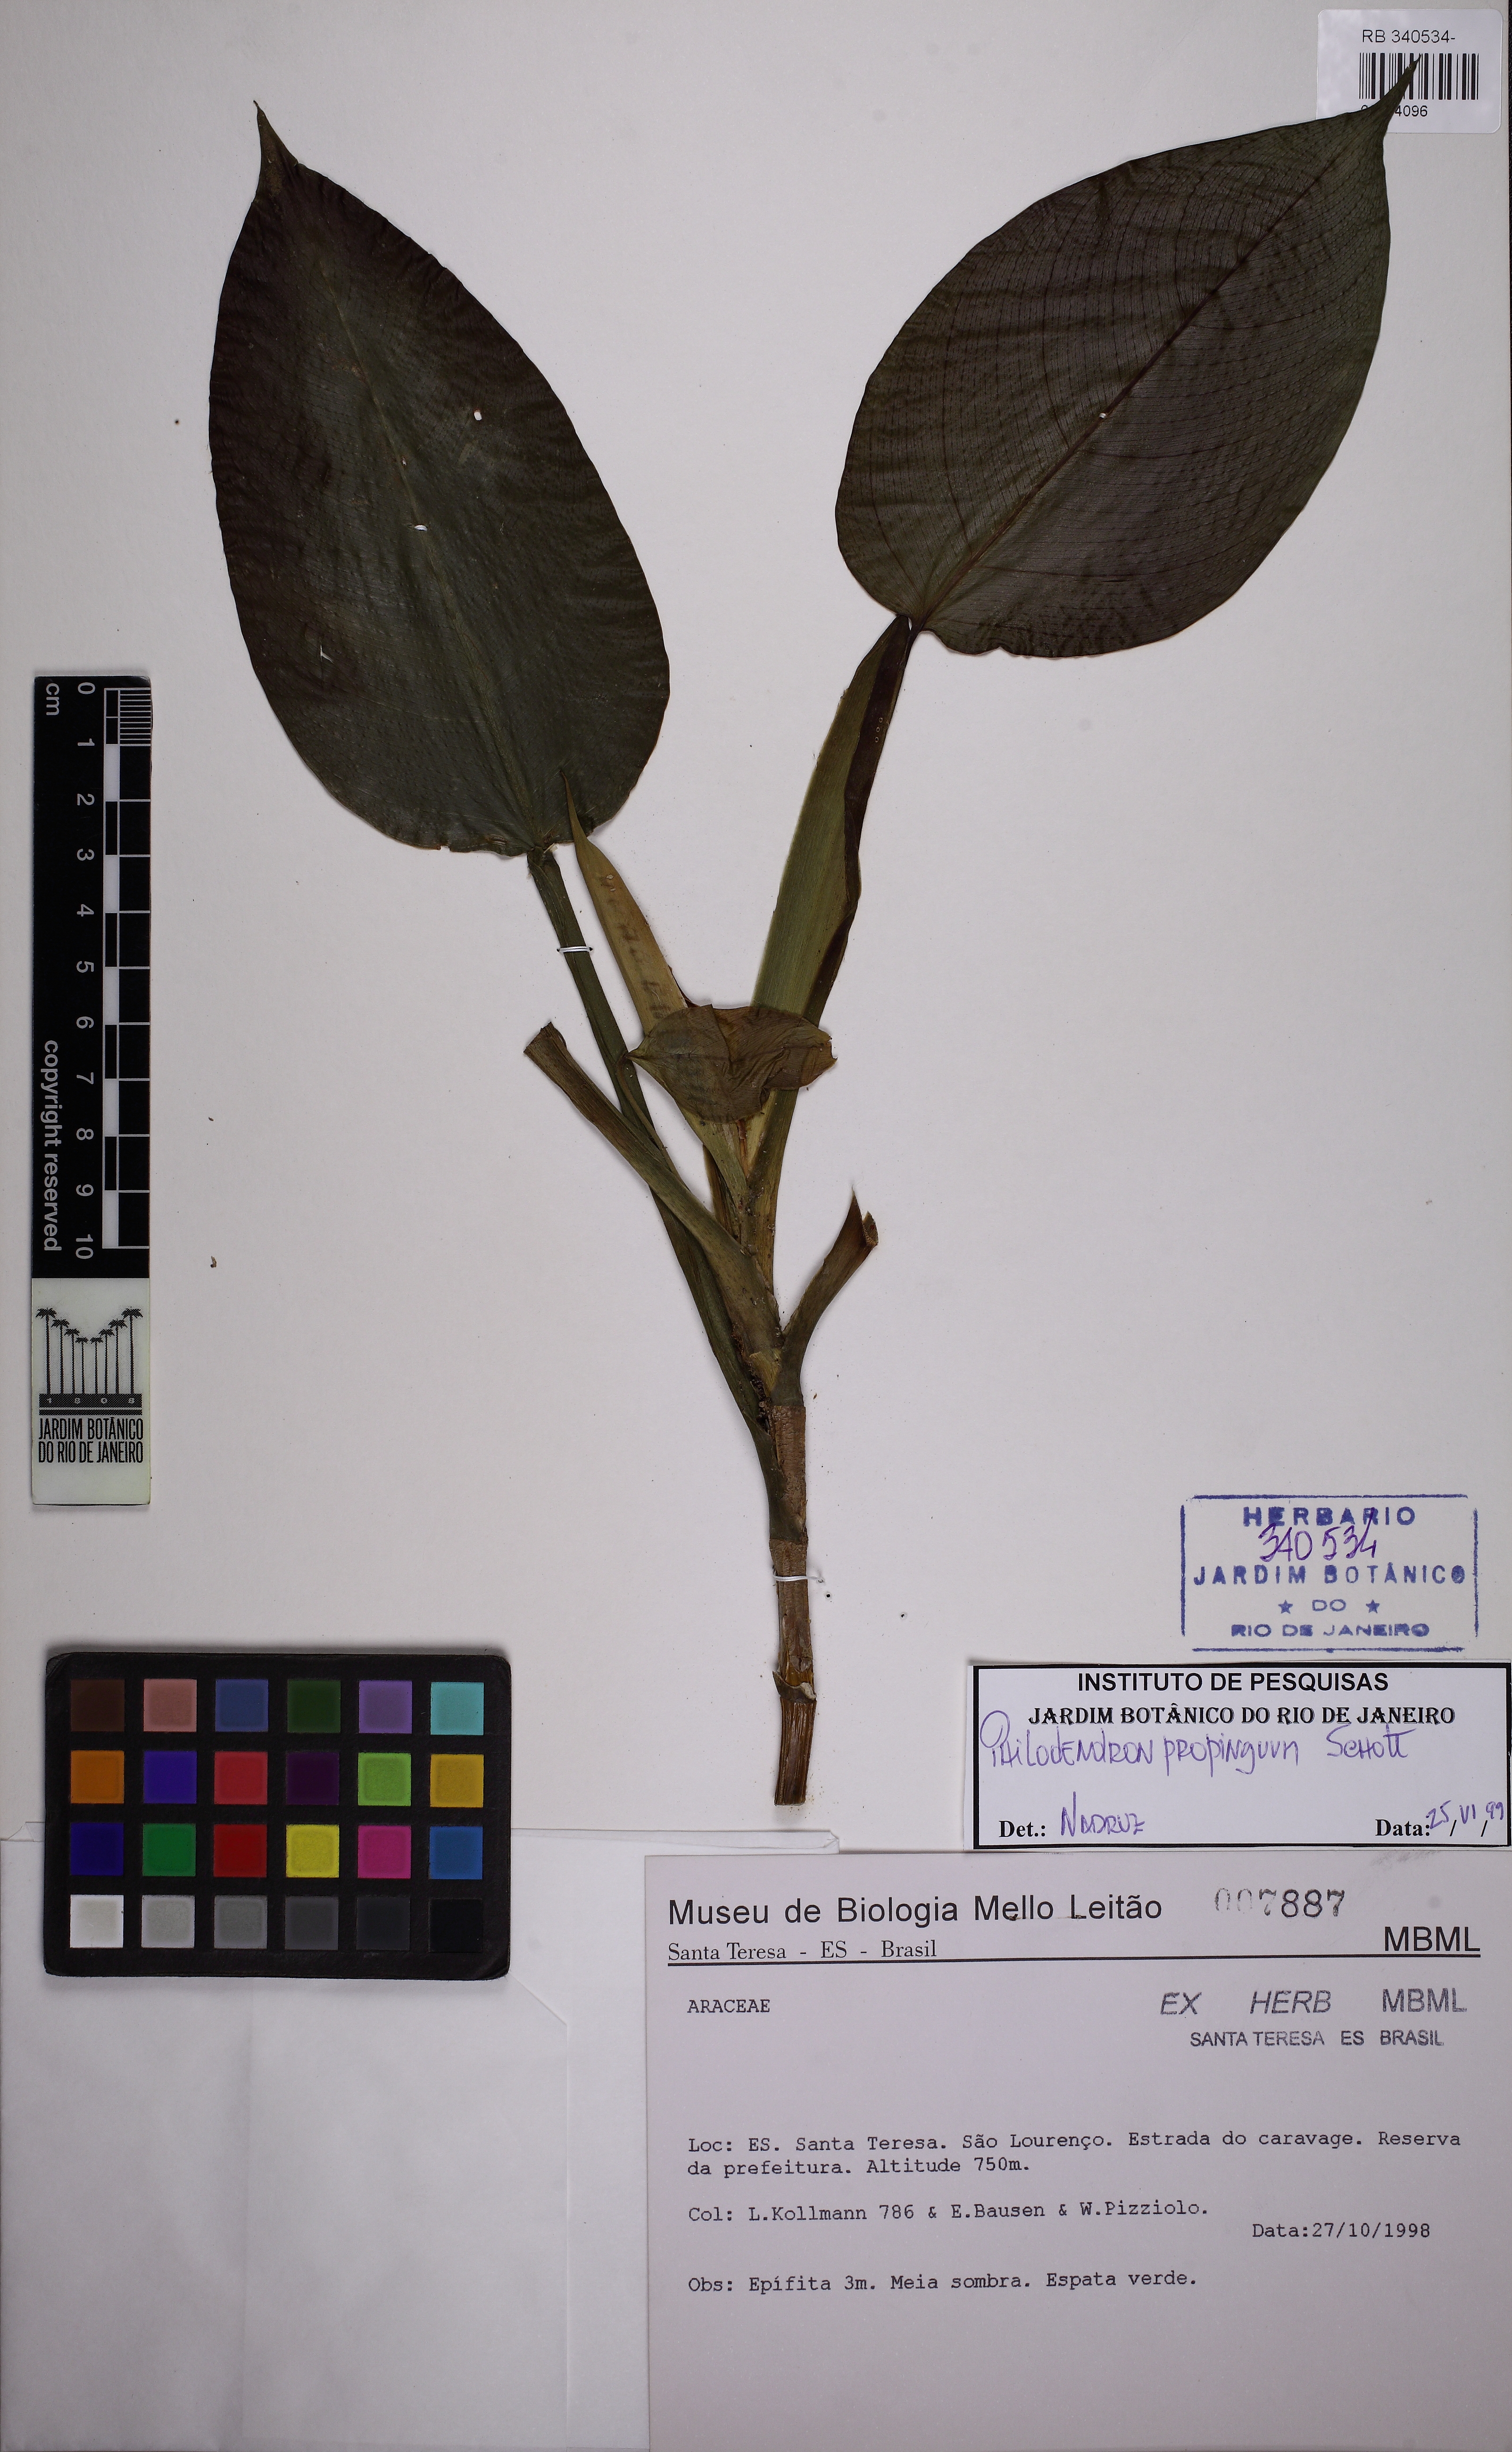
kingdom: Plantae
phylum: Tracheophyta
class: Liliopsida
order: Alismatales
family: Araceae
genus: Philodendron
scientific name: Philodendron propinquum
